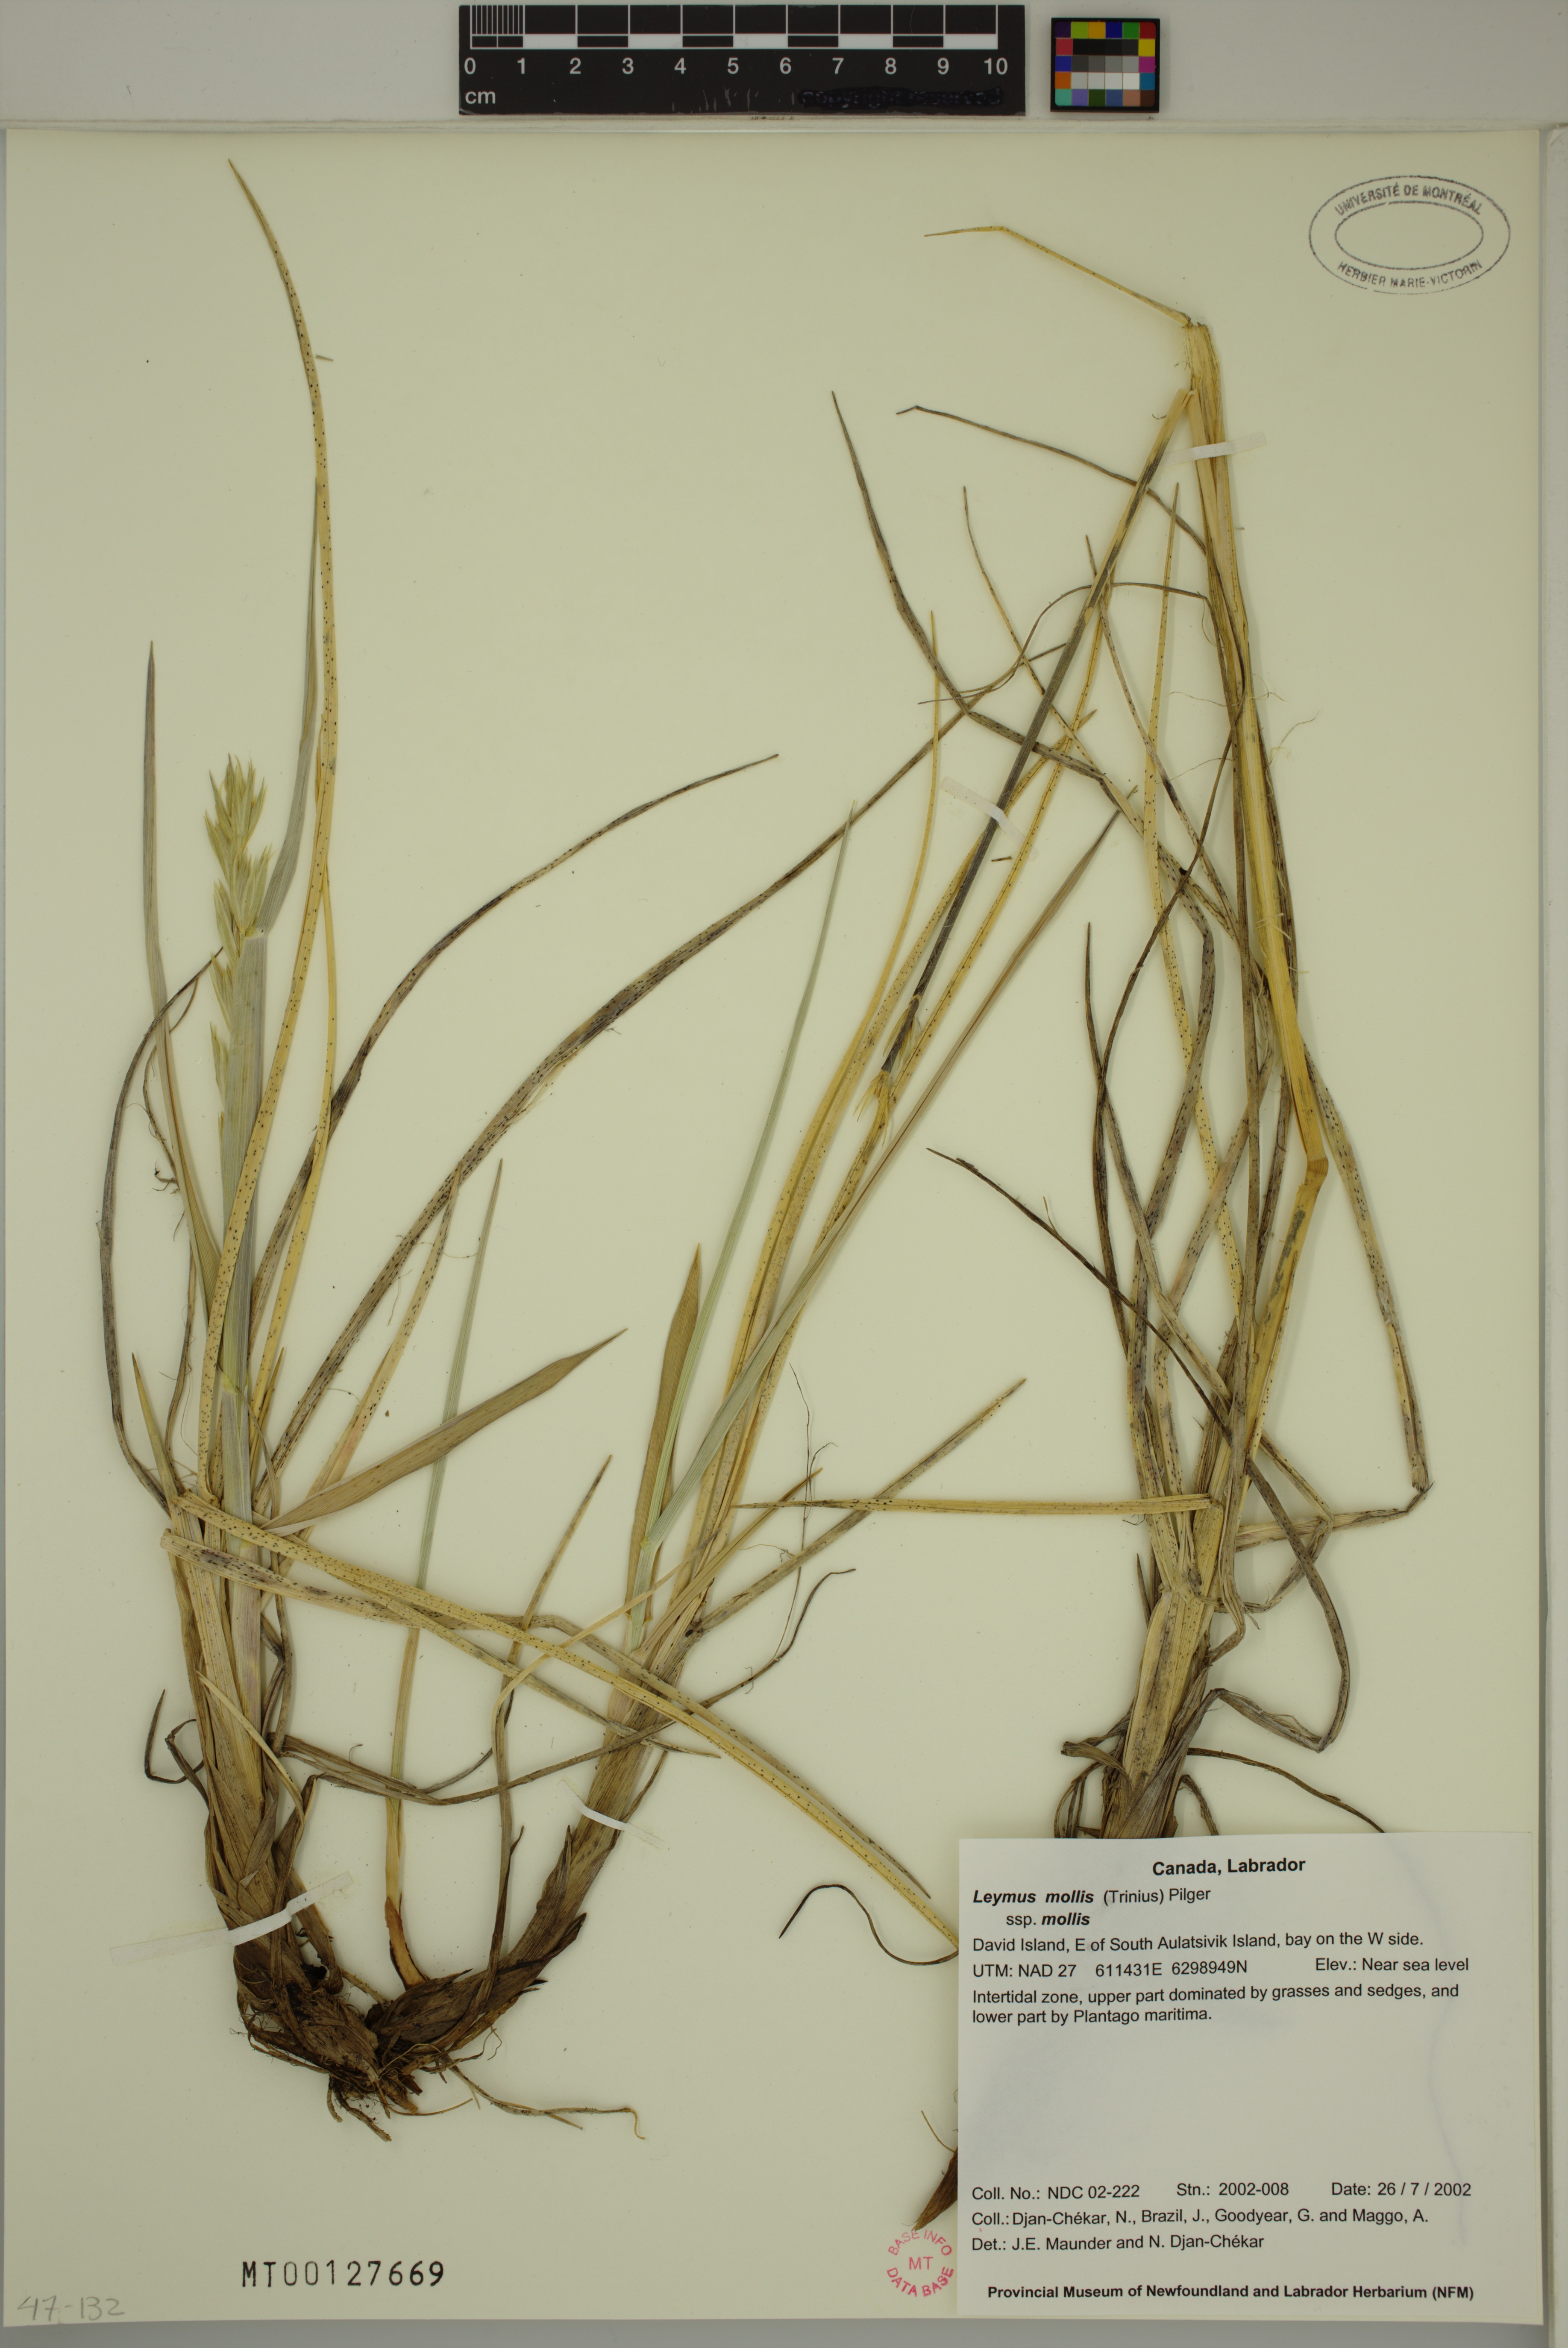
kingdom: Plantae
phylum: Tracheophyta
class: Liliopsida
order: Poales
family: Poaceae
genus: Leymus
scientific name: Leymus mollis
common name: American dune grass
